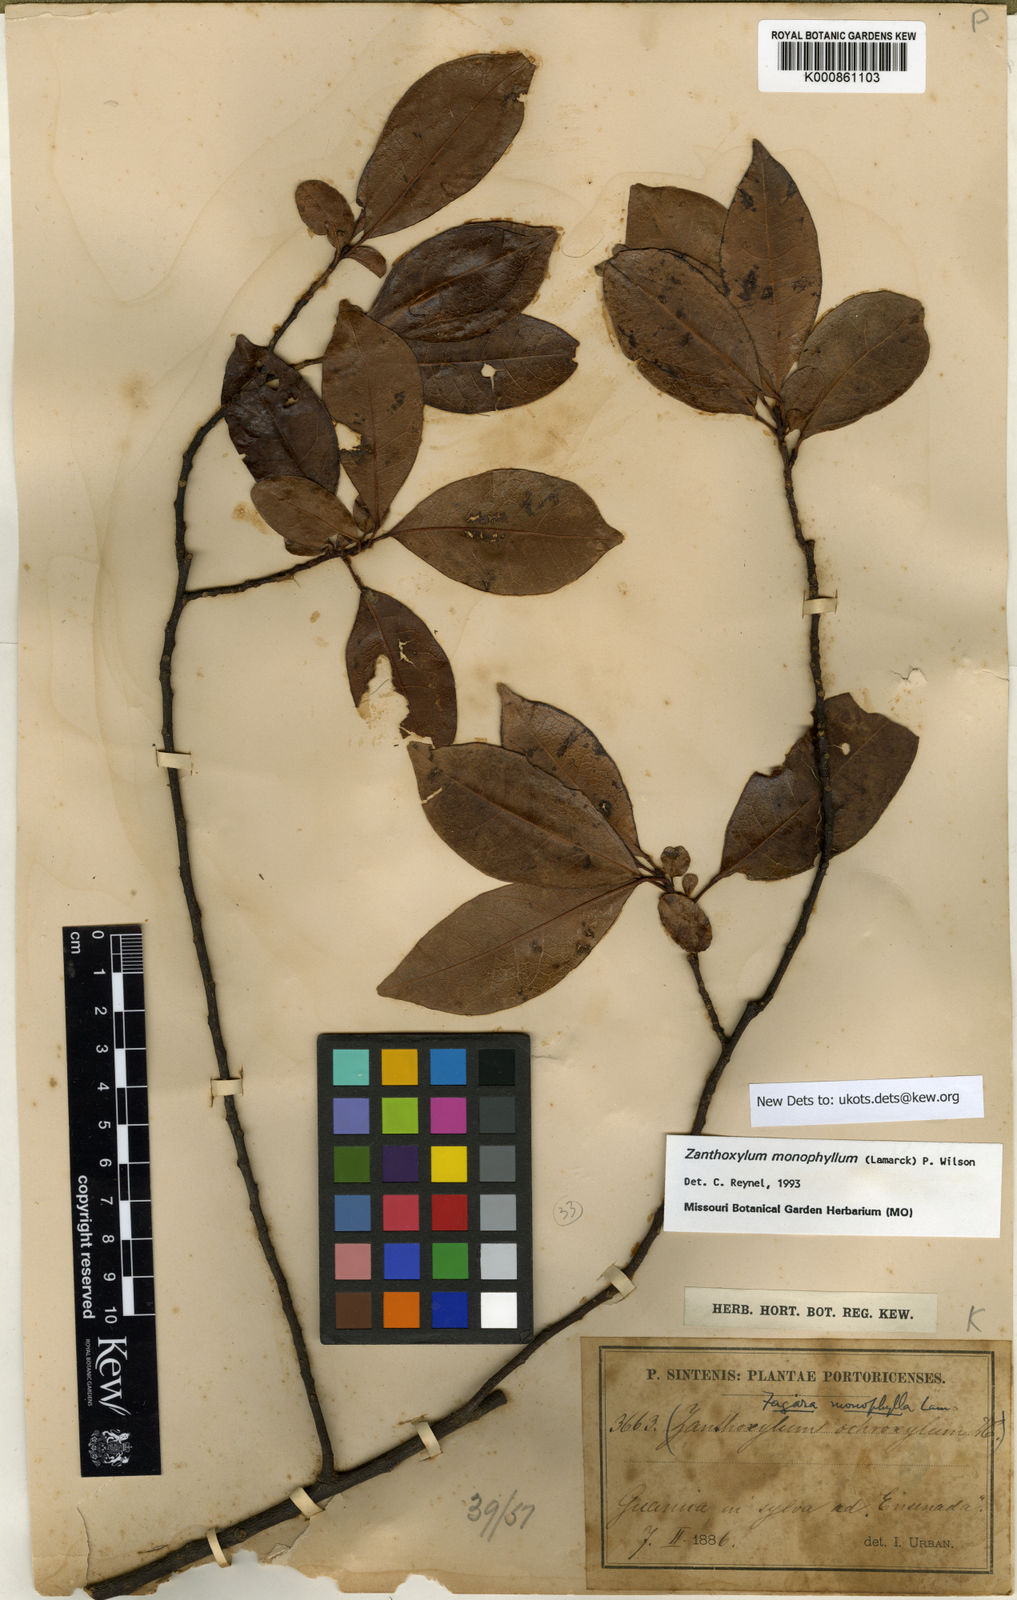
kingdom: Plantae
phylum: Tracheophyta
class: Magnoliopsida
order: Sapindales
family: Rutaceae
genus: Zanthoxylum
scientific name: Zanthoxylum schreberi
